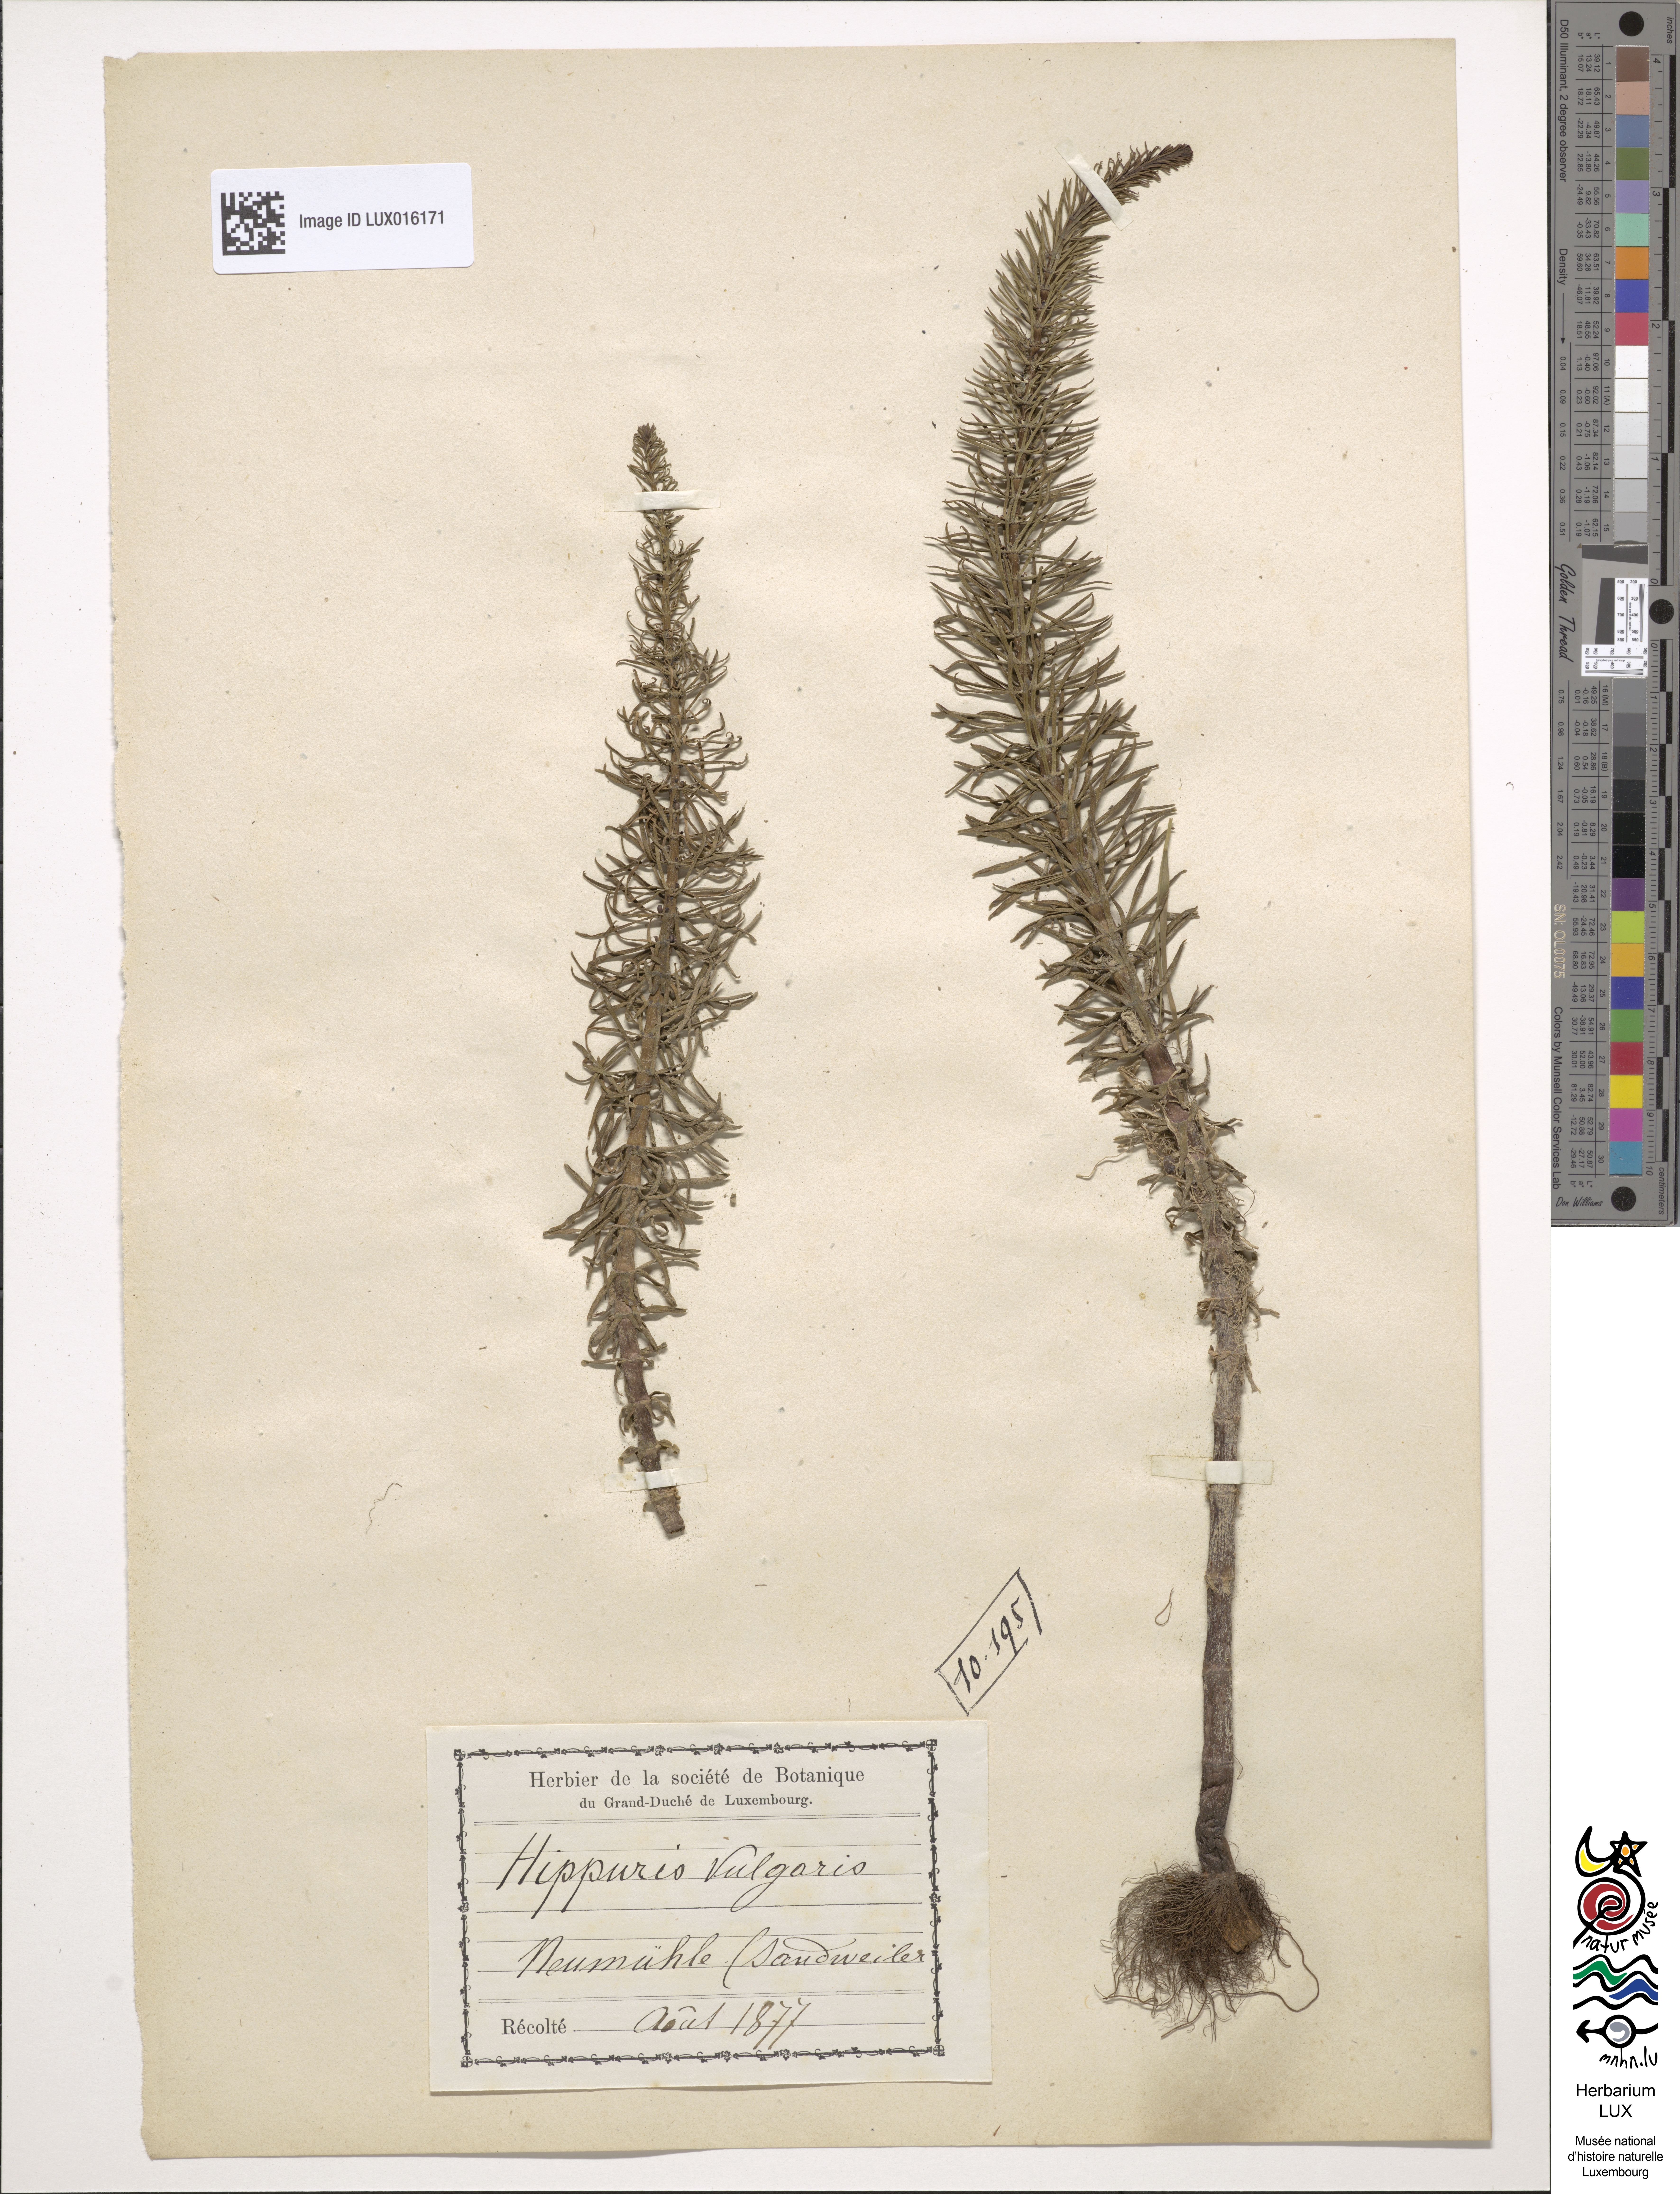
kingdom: Plantae
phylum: Tracheophyta
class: Magnoliopsida
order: Lamiales
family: Plantaginaceae
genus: Hippuris
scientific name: Hippuris vulgaris
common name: Mare's-tail
